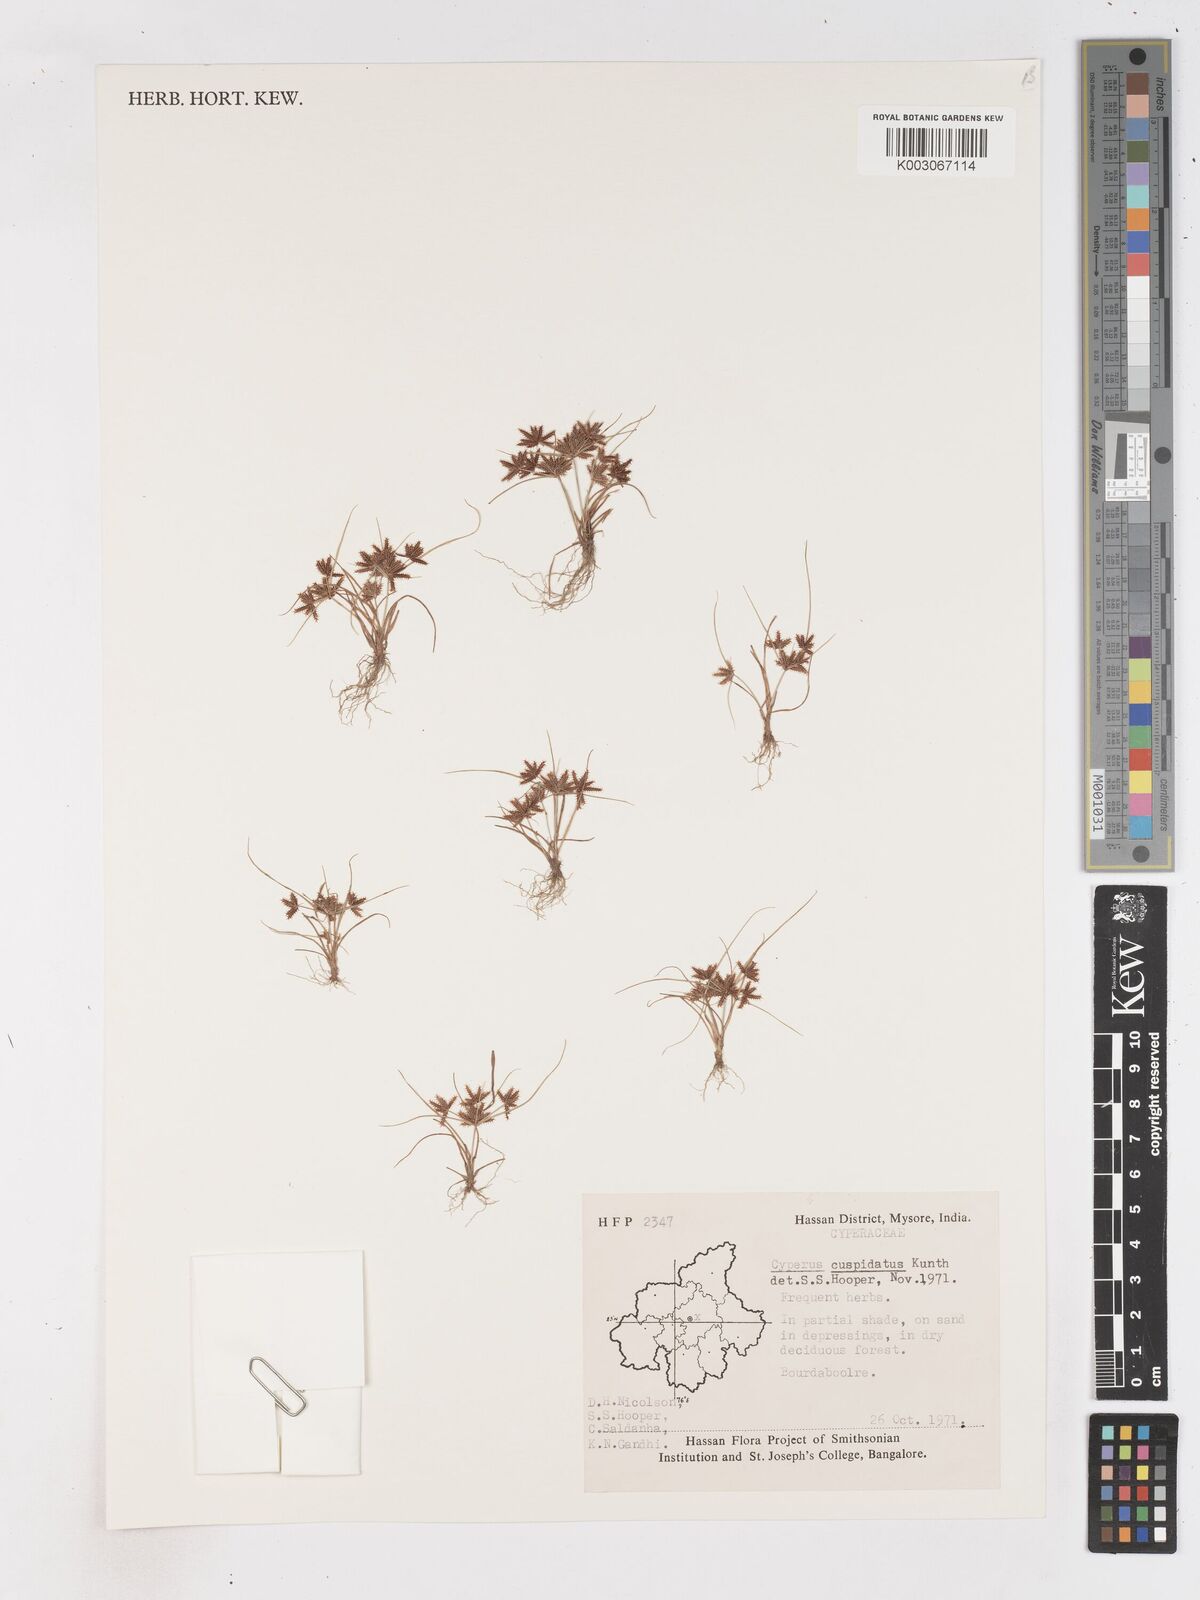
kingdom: Plantae
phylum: Tracheophyta
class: Liliopsida
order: Poales
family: Cyperaceae
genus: Cyperus
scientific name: Cyperus cuspidatus
